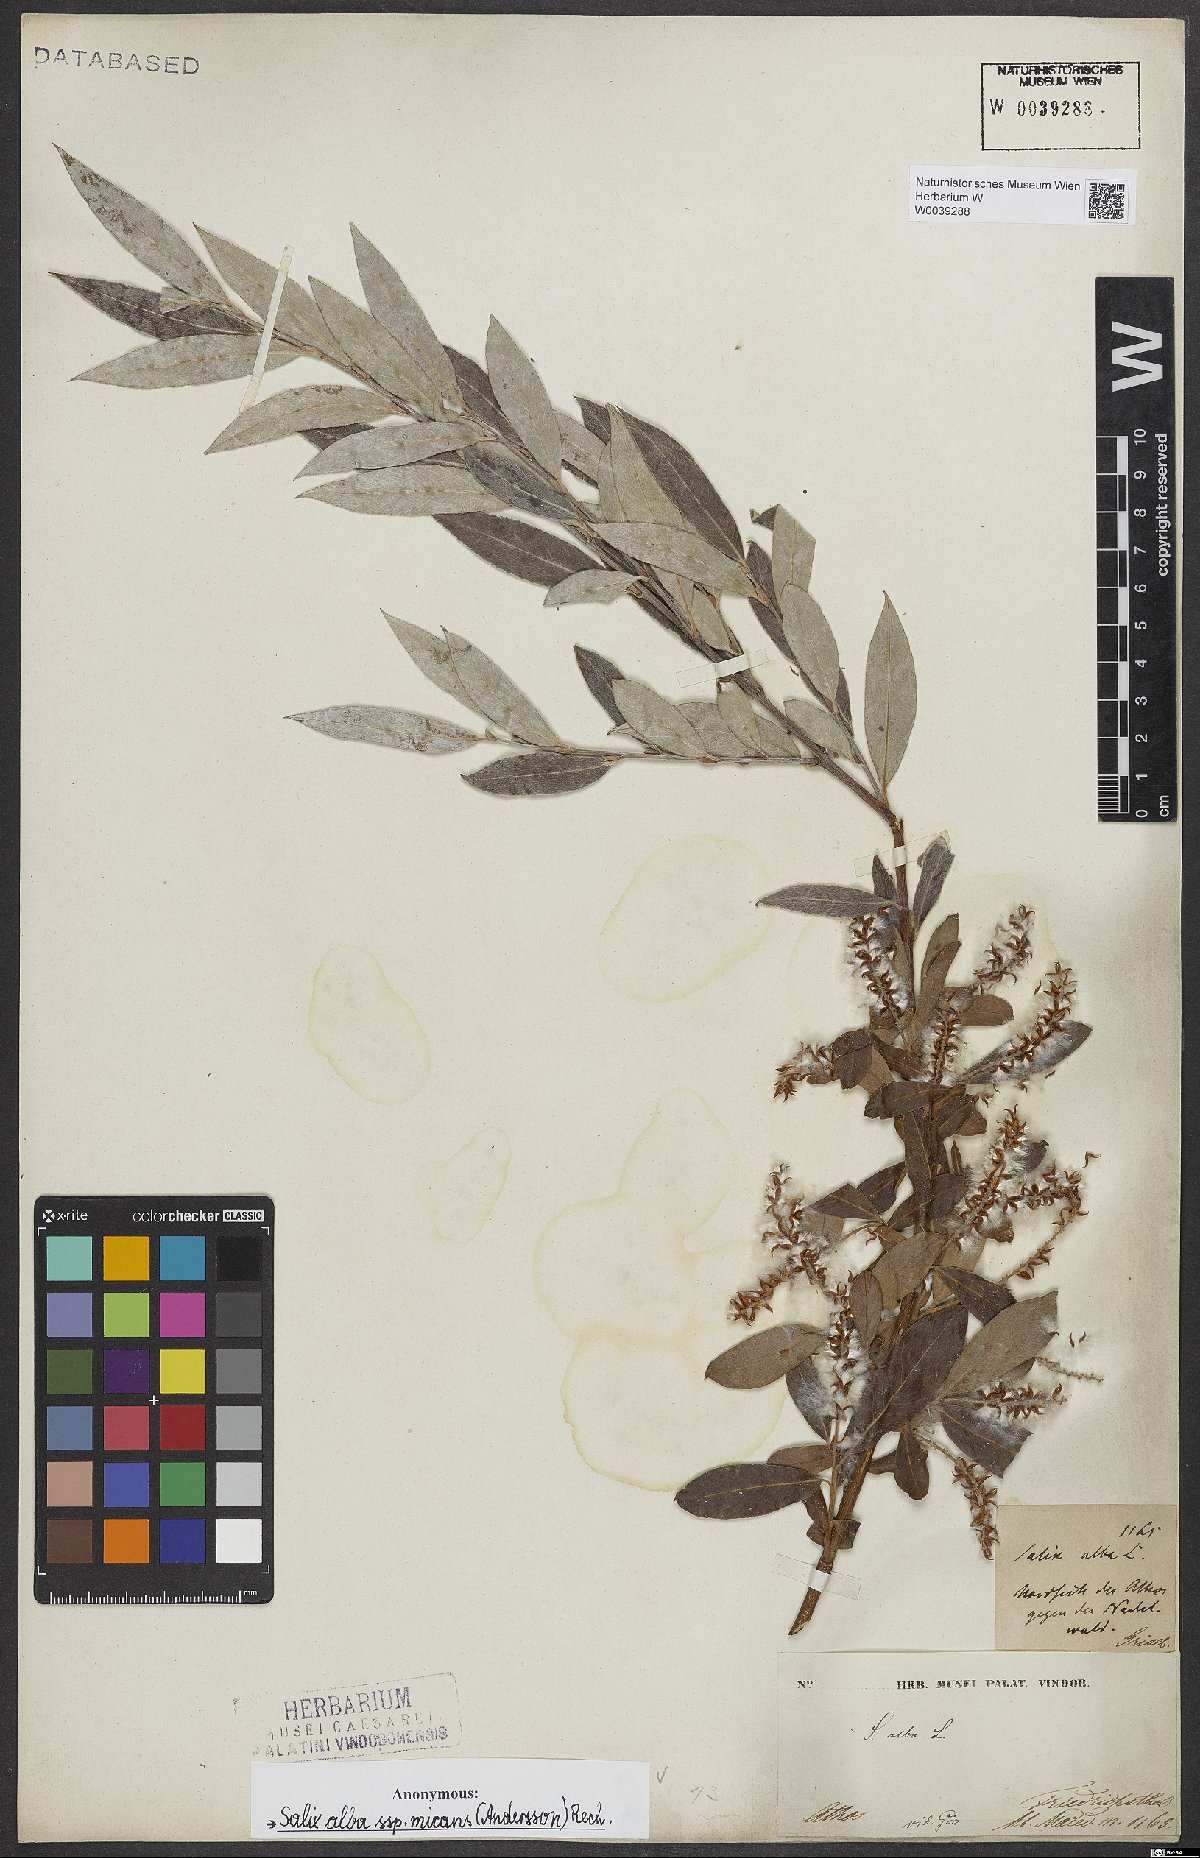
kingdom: Plantae
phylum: Tracheophyta
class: Magnoliopsida
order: Malpighiales
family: Salicaceae
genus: Salix
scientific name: Salix alba
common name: White willow
